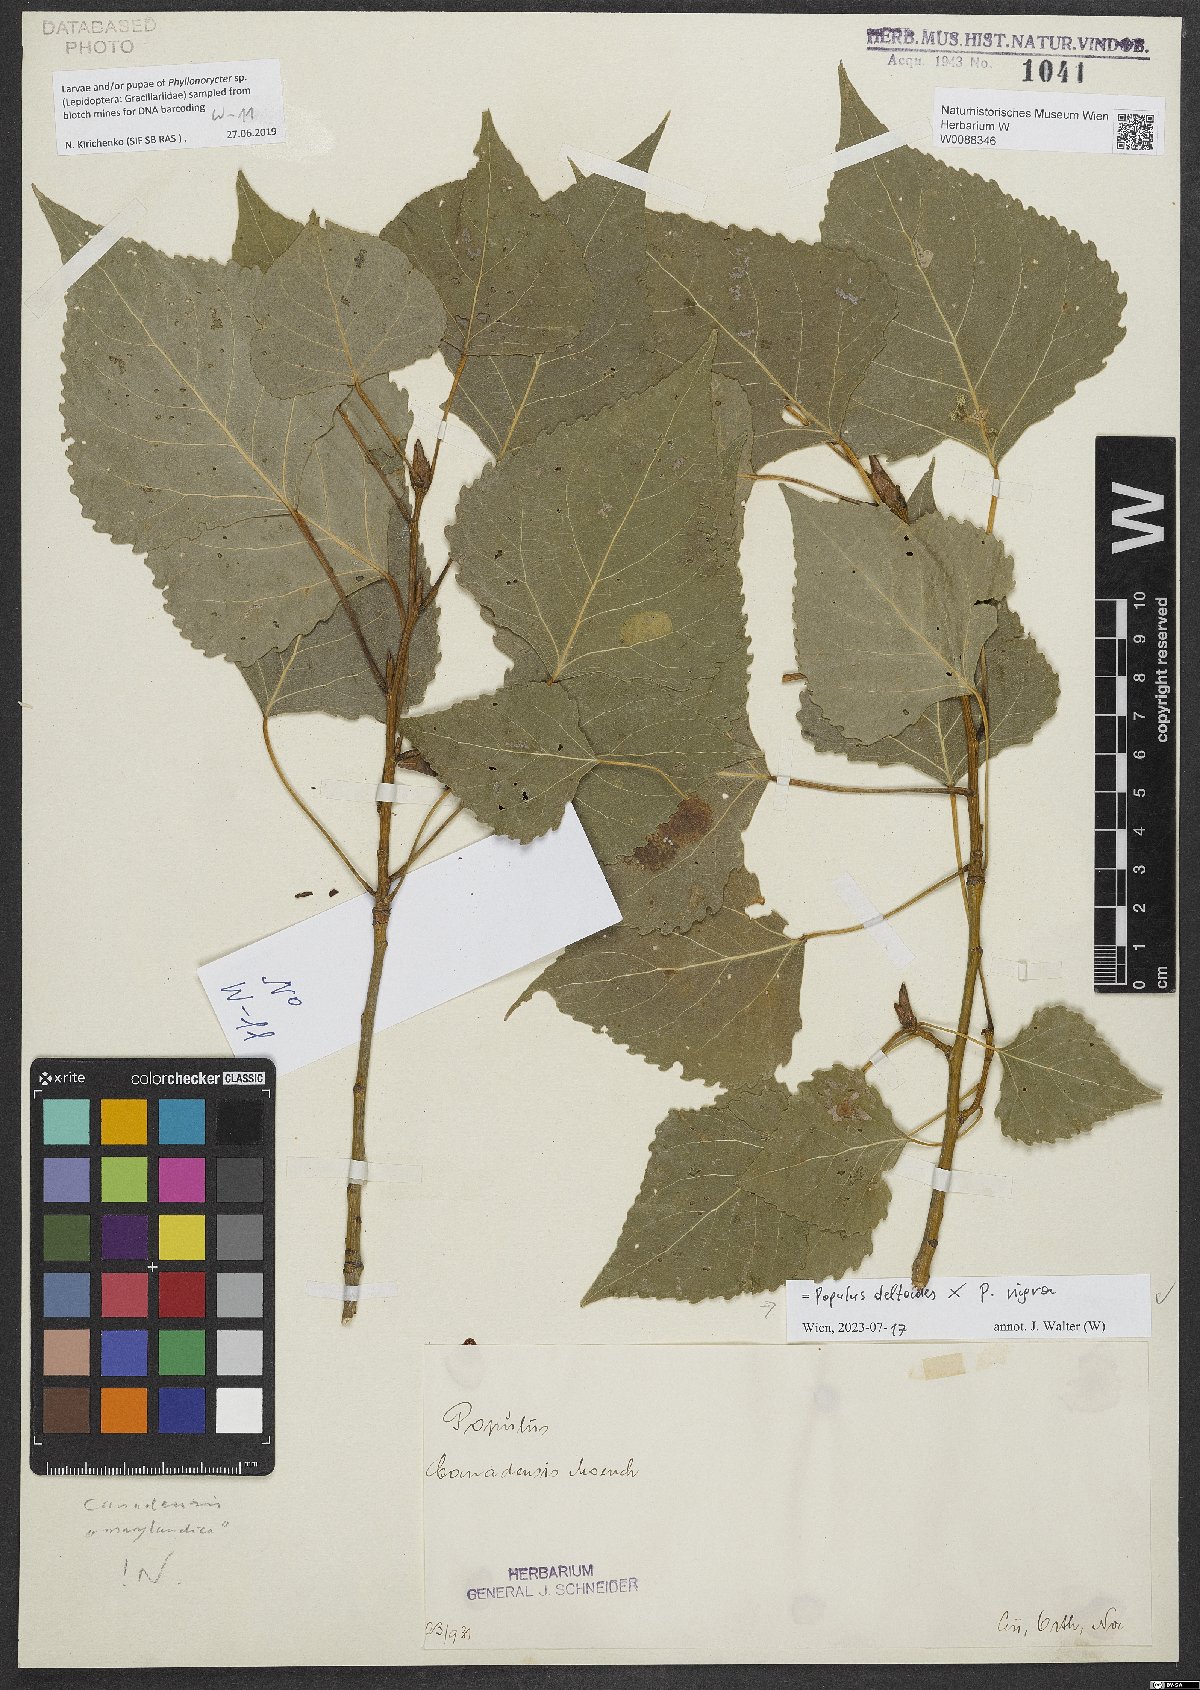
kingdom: Plantae
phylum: Tracheophyta
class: Magnoliopsida
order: Malpighiales
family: Salicaceae
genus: Populus
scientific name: Populus canadensis
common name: Carolina poplar
